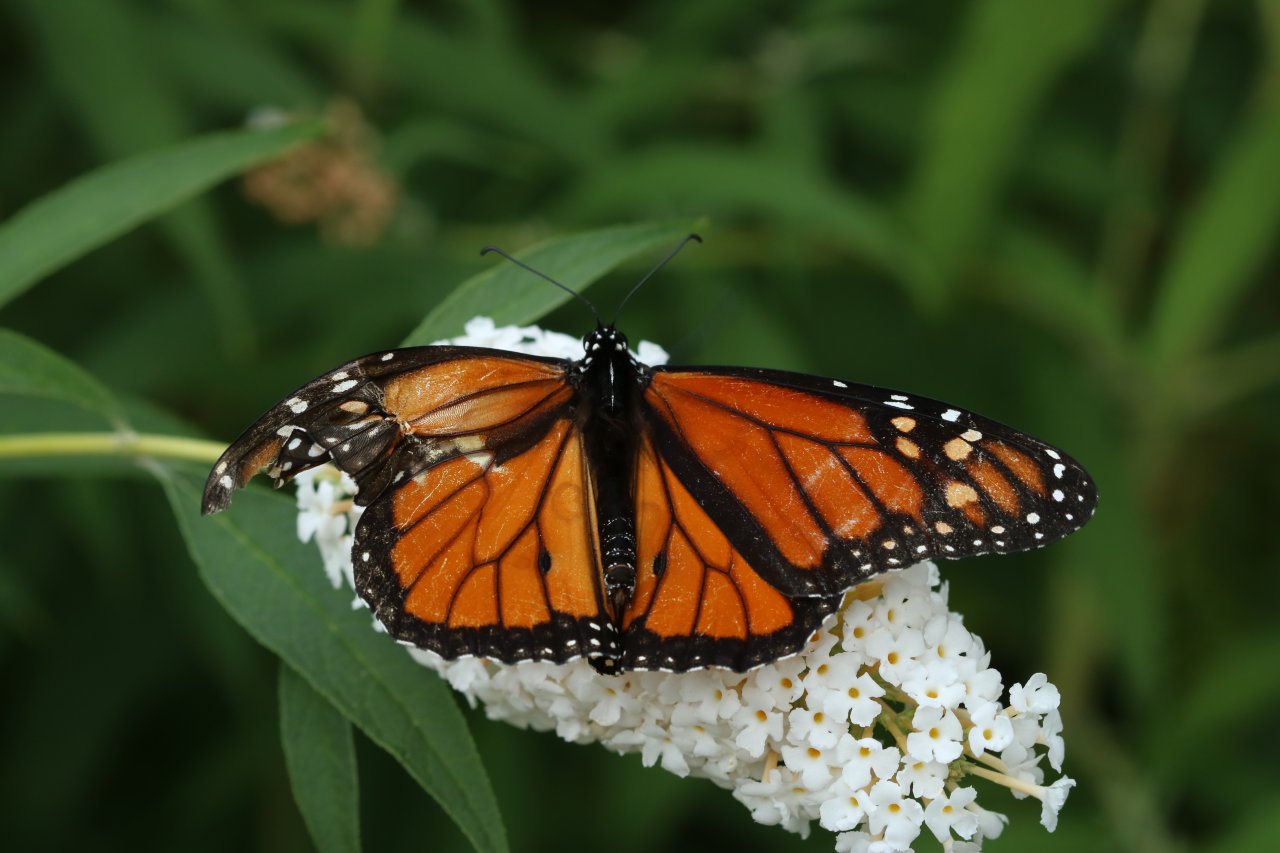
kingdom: Animalia
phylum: Arthropoda
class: Insecta
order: Lepidoptera
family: Nymphalidae
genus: Danaus
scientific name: Danaus plexippus
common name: Monarch
